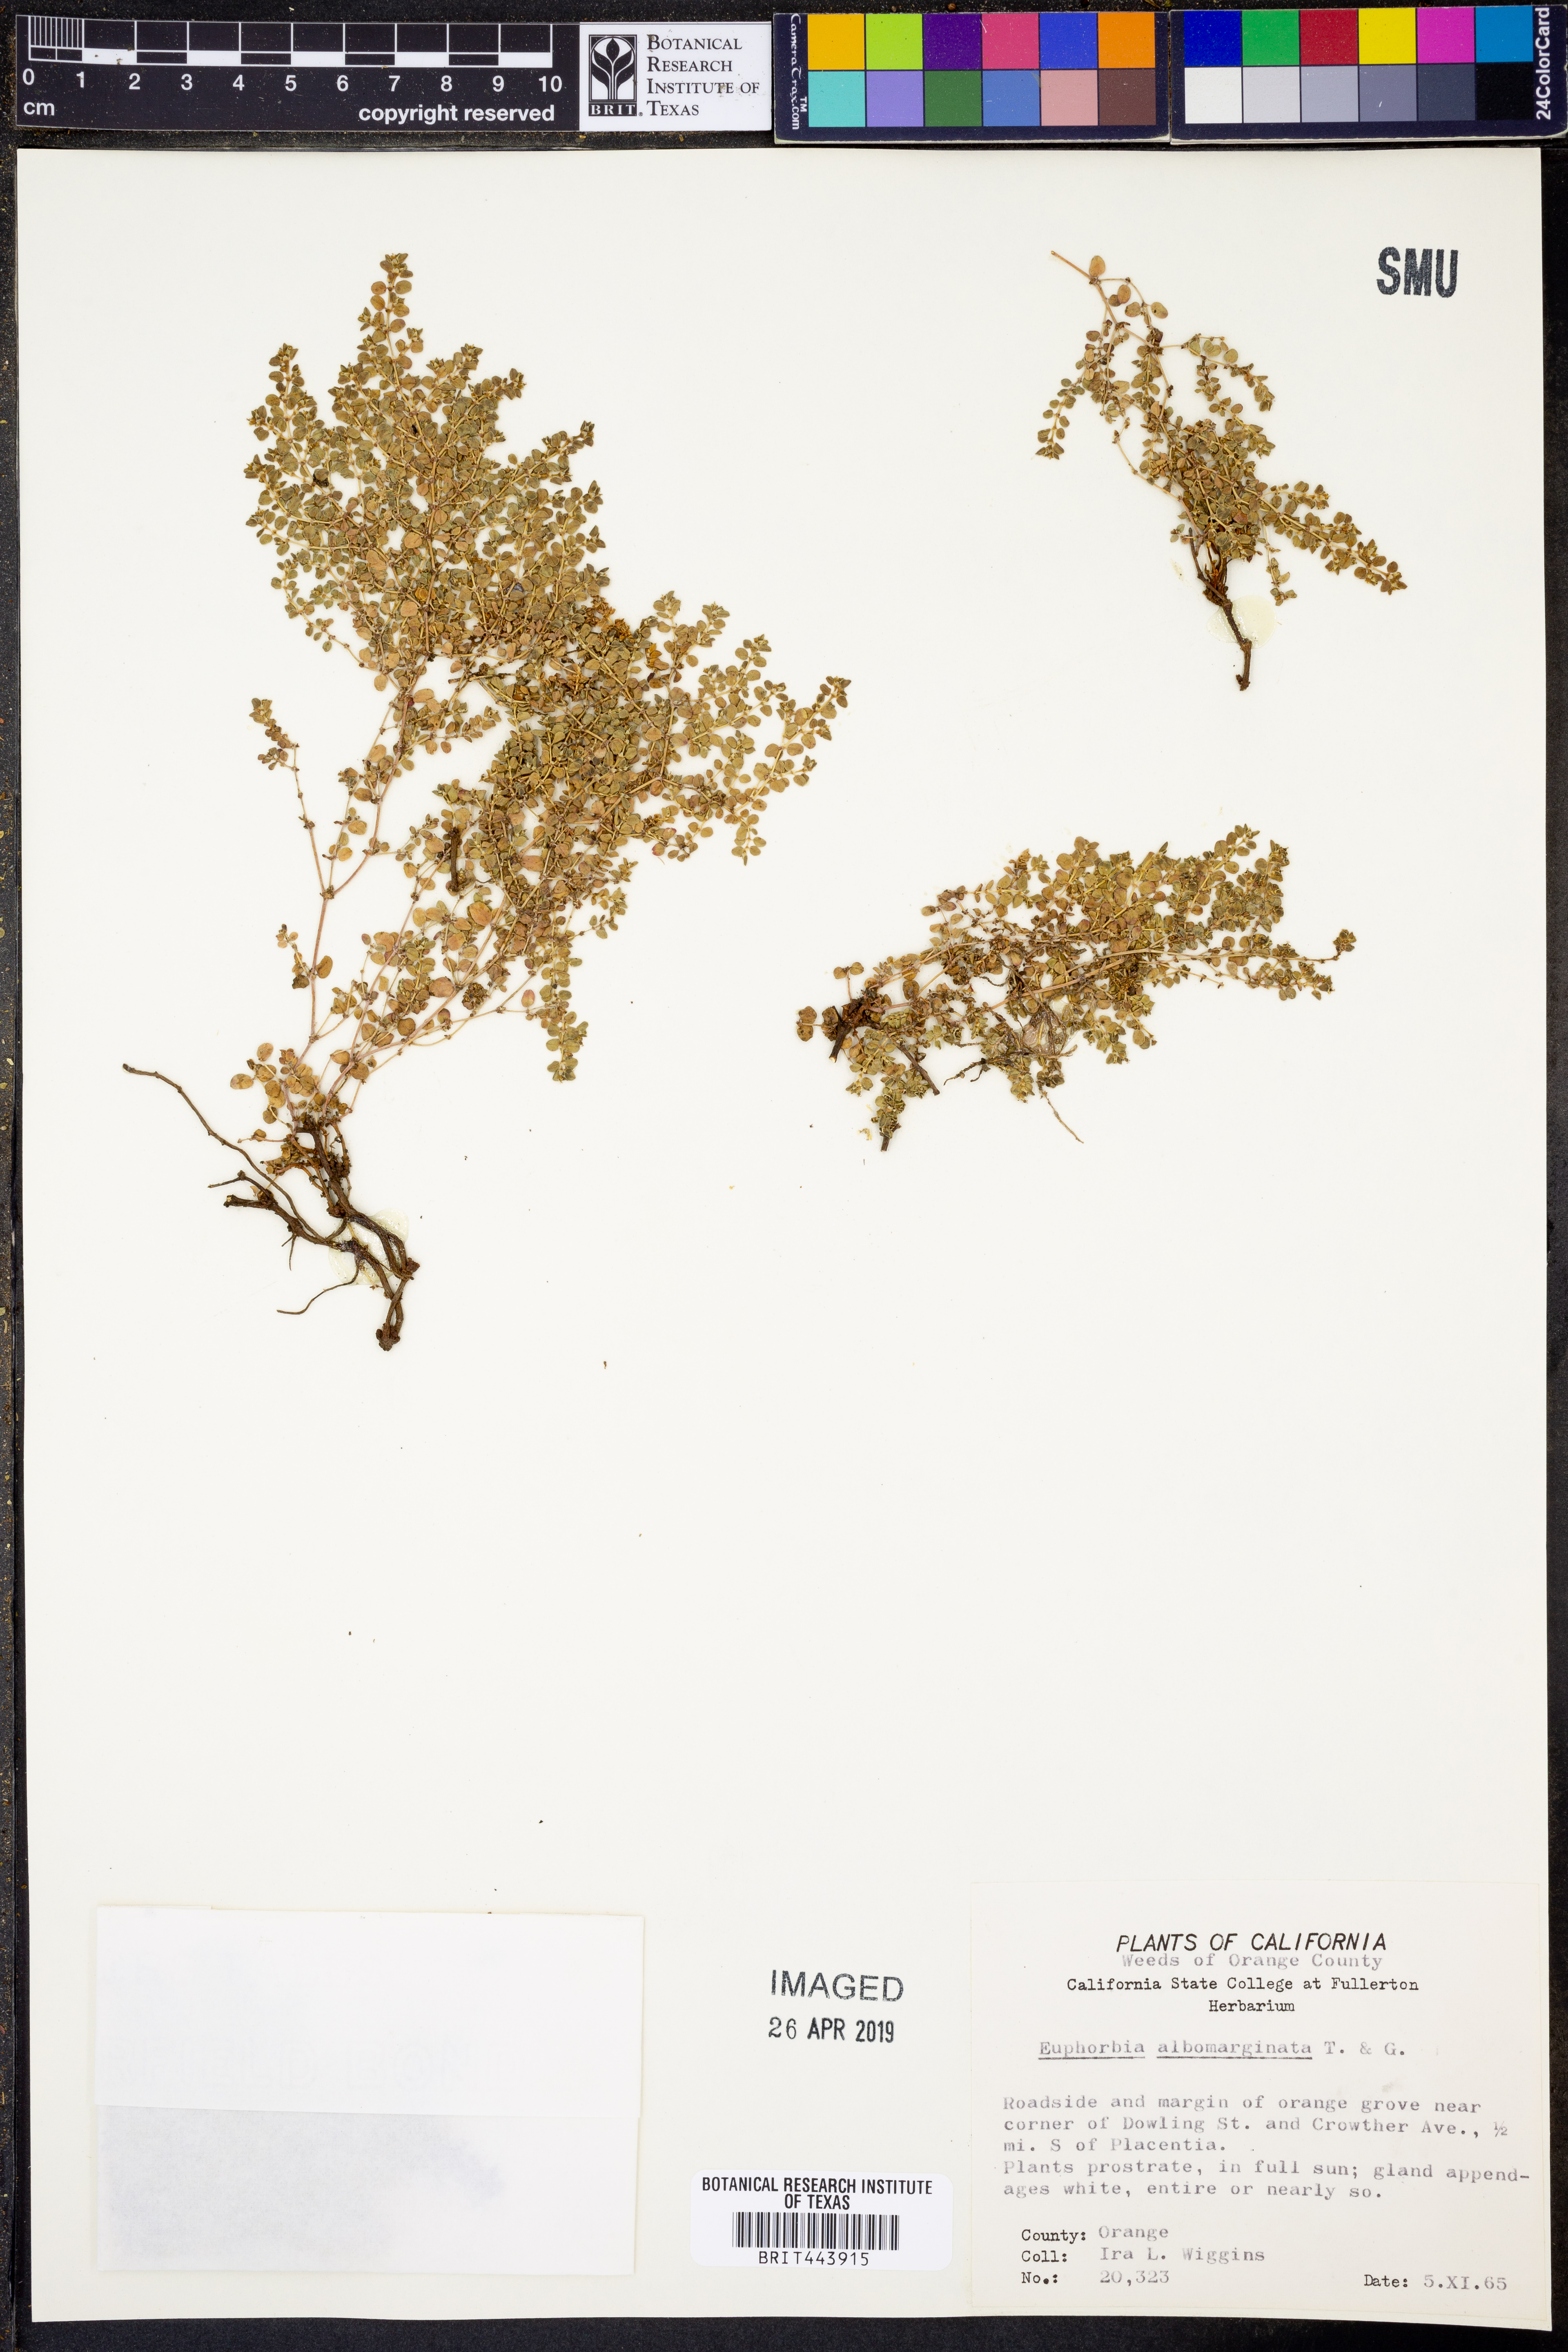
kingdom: Plantae
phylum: Tracheophyta
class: Magnoliopsida
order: Malpighiales
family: Euphorbiaceae
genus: Euphorbia
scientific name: Euphorbia albomarginata
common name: Whitemargin sandmat
